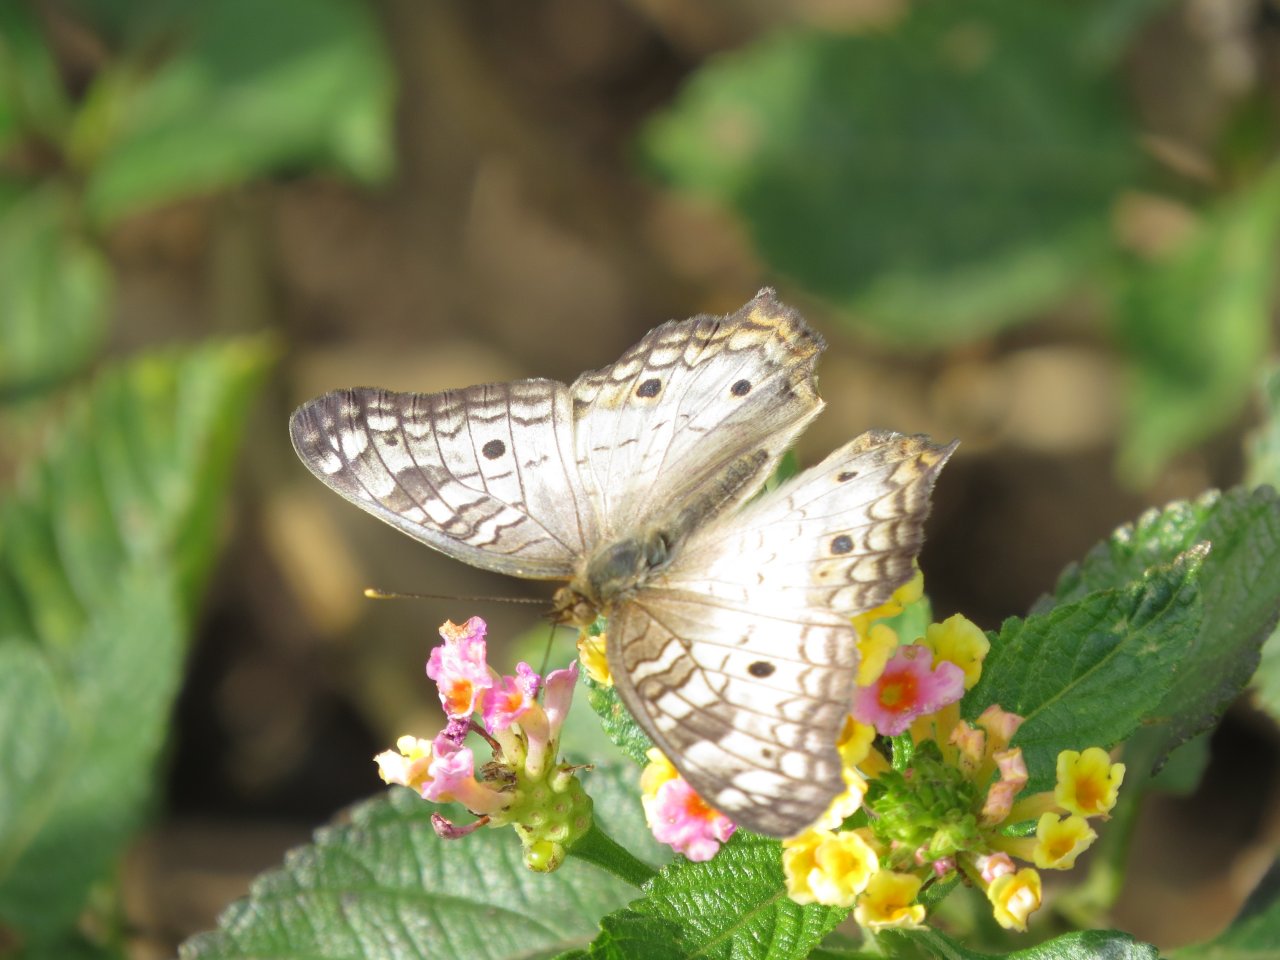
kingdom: Animalia
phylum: Arthropoda
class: Insecta
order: Lepidoptera
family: Nymphalidae
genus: Anartia
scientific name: Anartia jatrophae
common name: White Peacock
